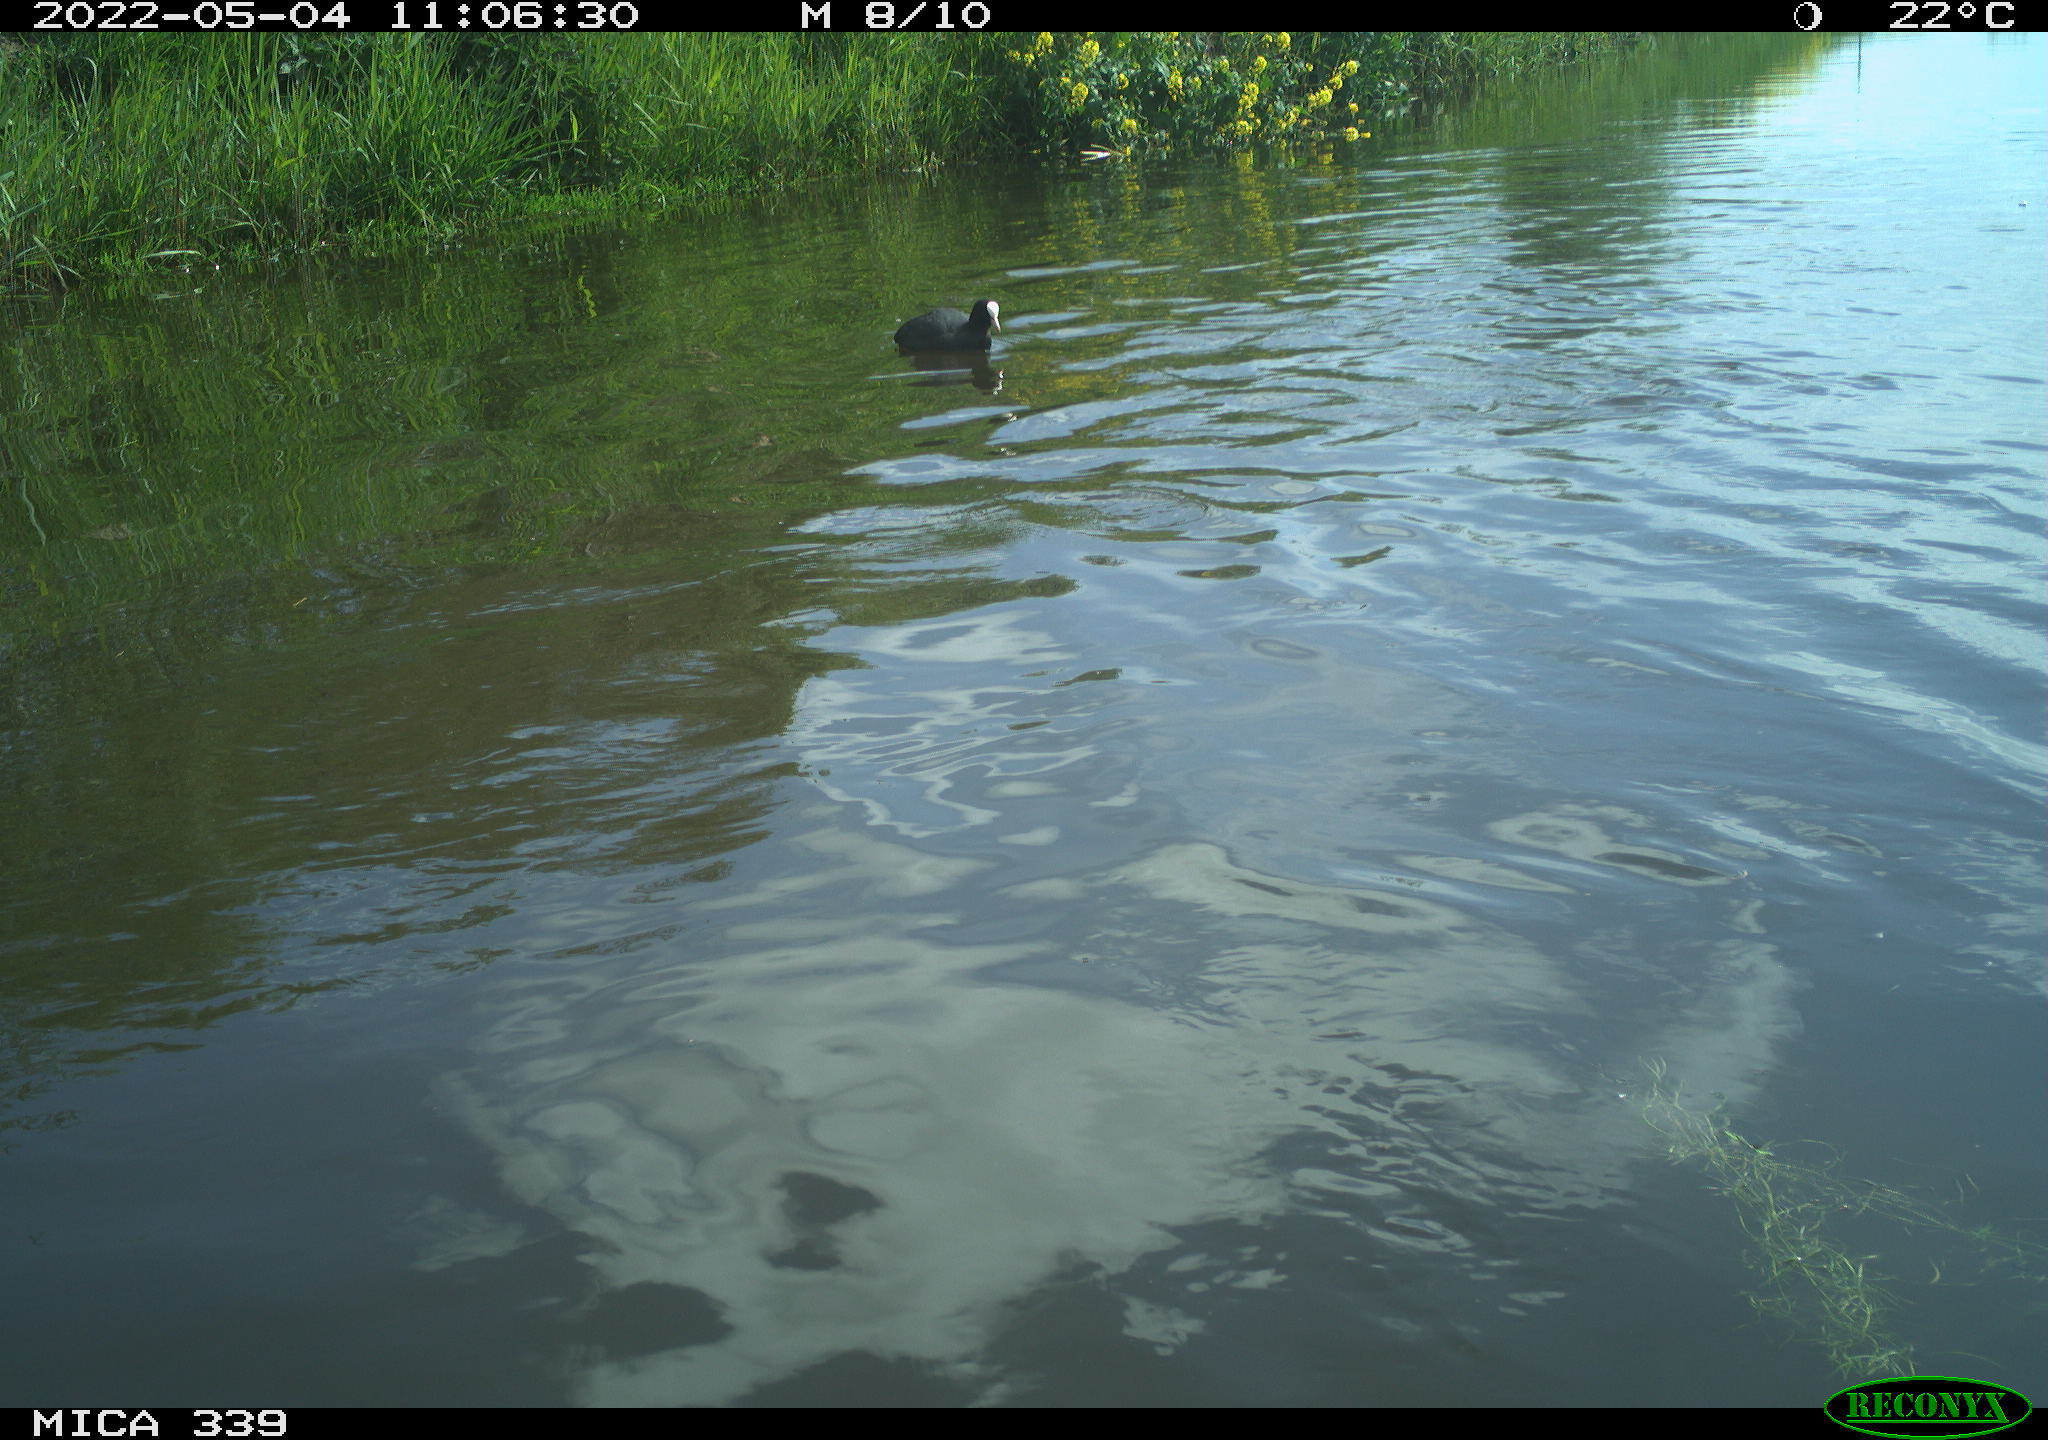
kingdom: Animalia
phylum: Chordata
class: Aves
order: Gruiformes
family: Rallidae
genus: Fulica
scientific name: Fulica atra
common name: Eurasian coot
